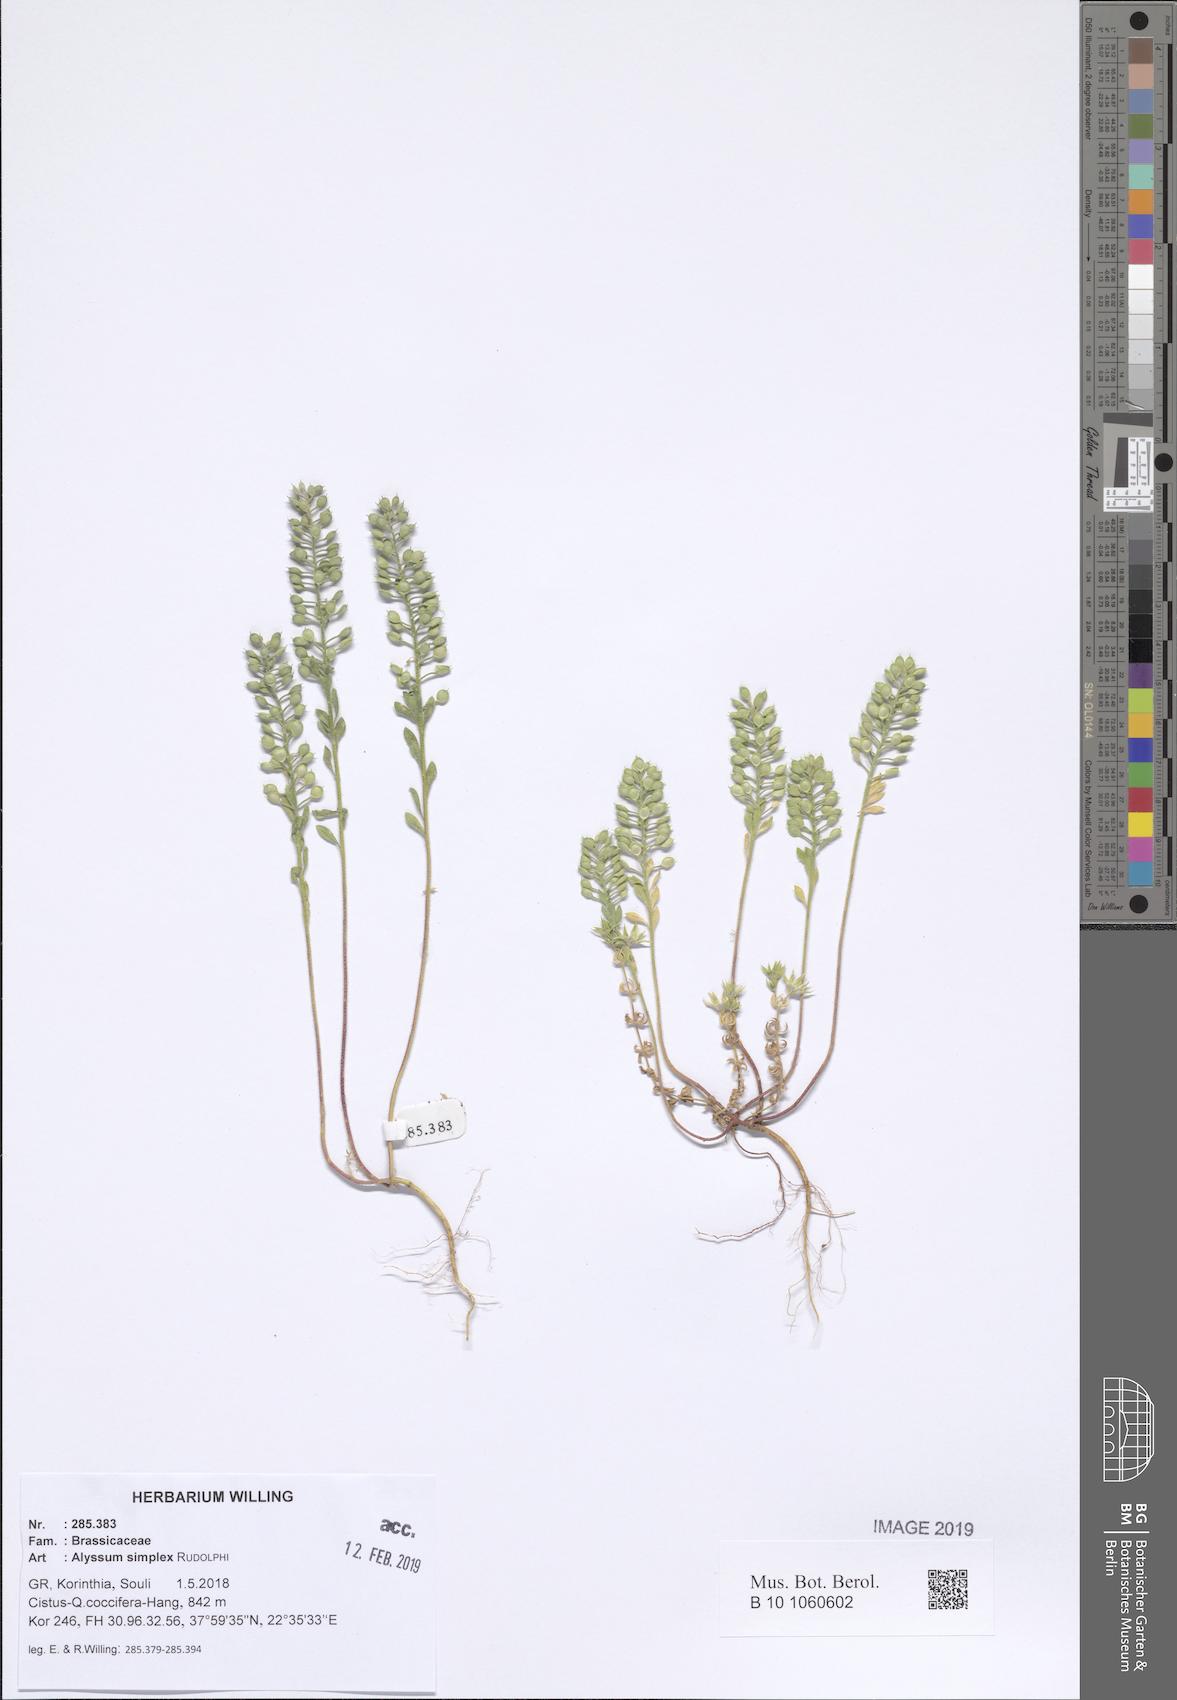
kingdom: Plantae
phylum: Tracheophyta
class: Magnoliopsida
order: Brassicales
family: Brassicaceae
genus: Alyssum
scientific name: Alyssum simplex
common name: Alyssum
